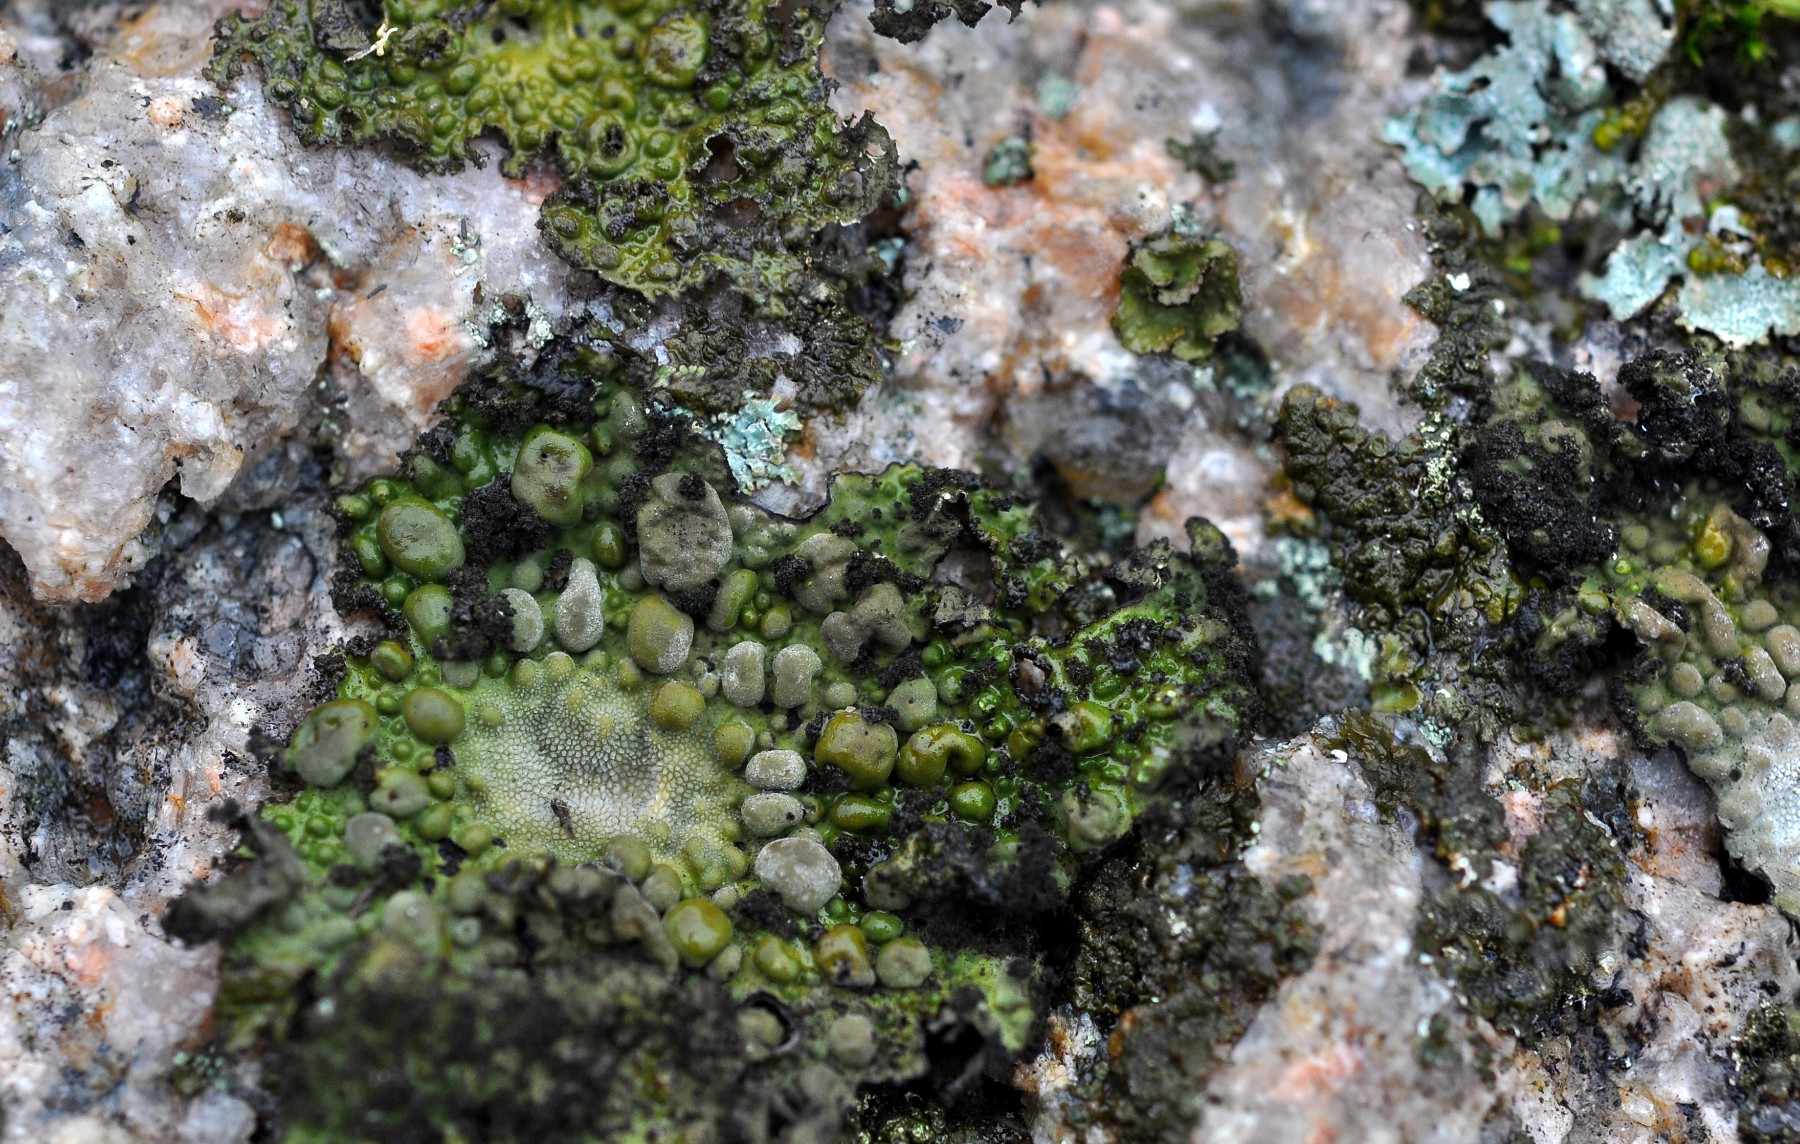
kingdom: Fungi
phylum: Ascomycota
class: Lecanoromycetes
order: Umbilicariales
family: Umbilicariaceae
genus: Lasallia
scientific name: Lasallia pustulata
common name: buklet navlelav
